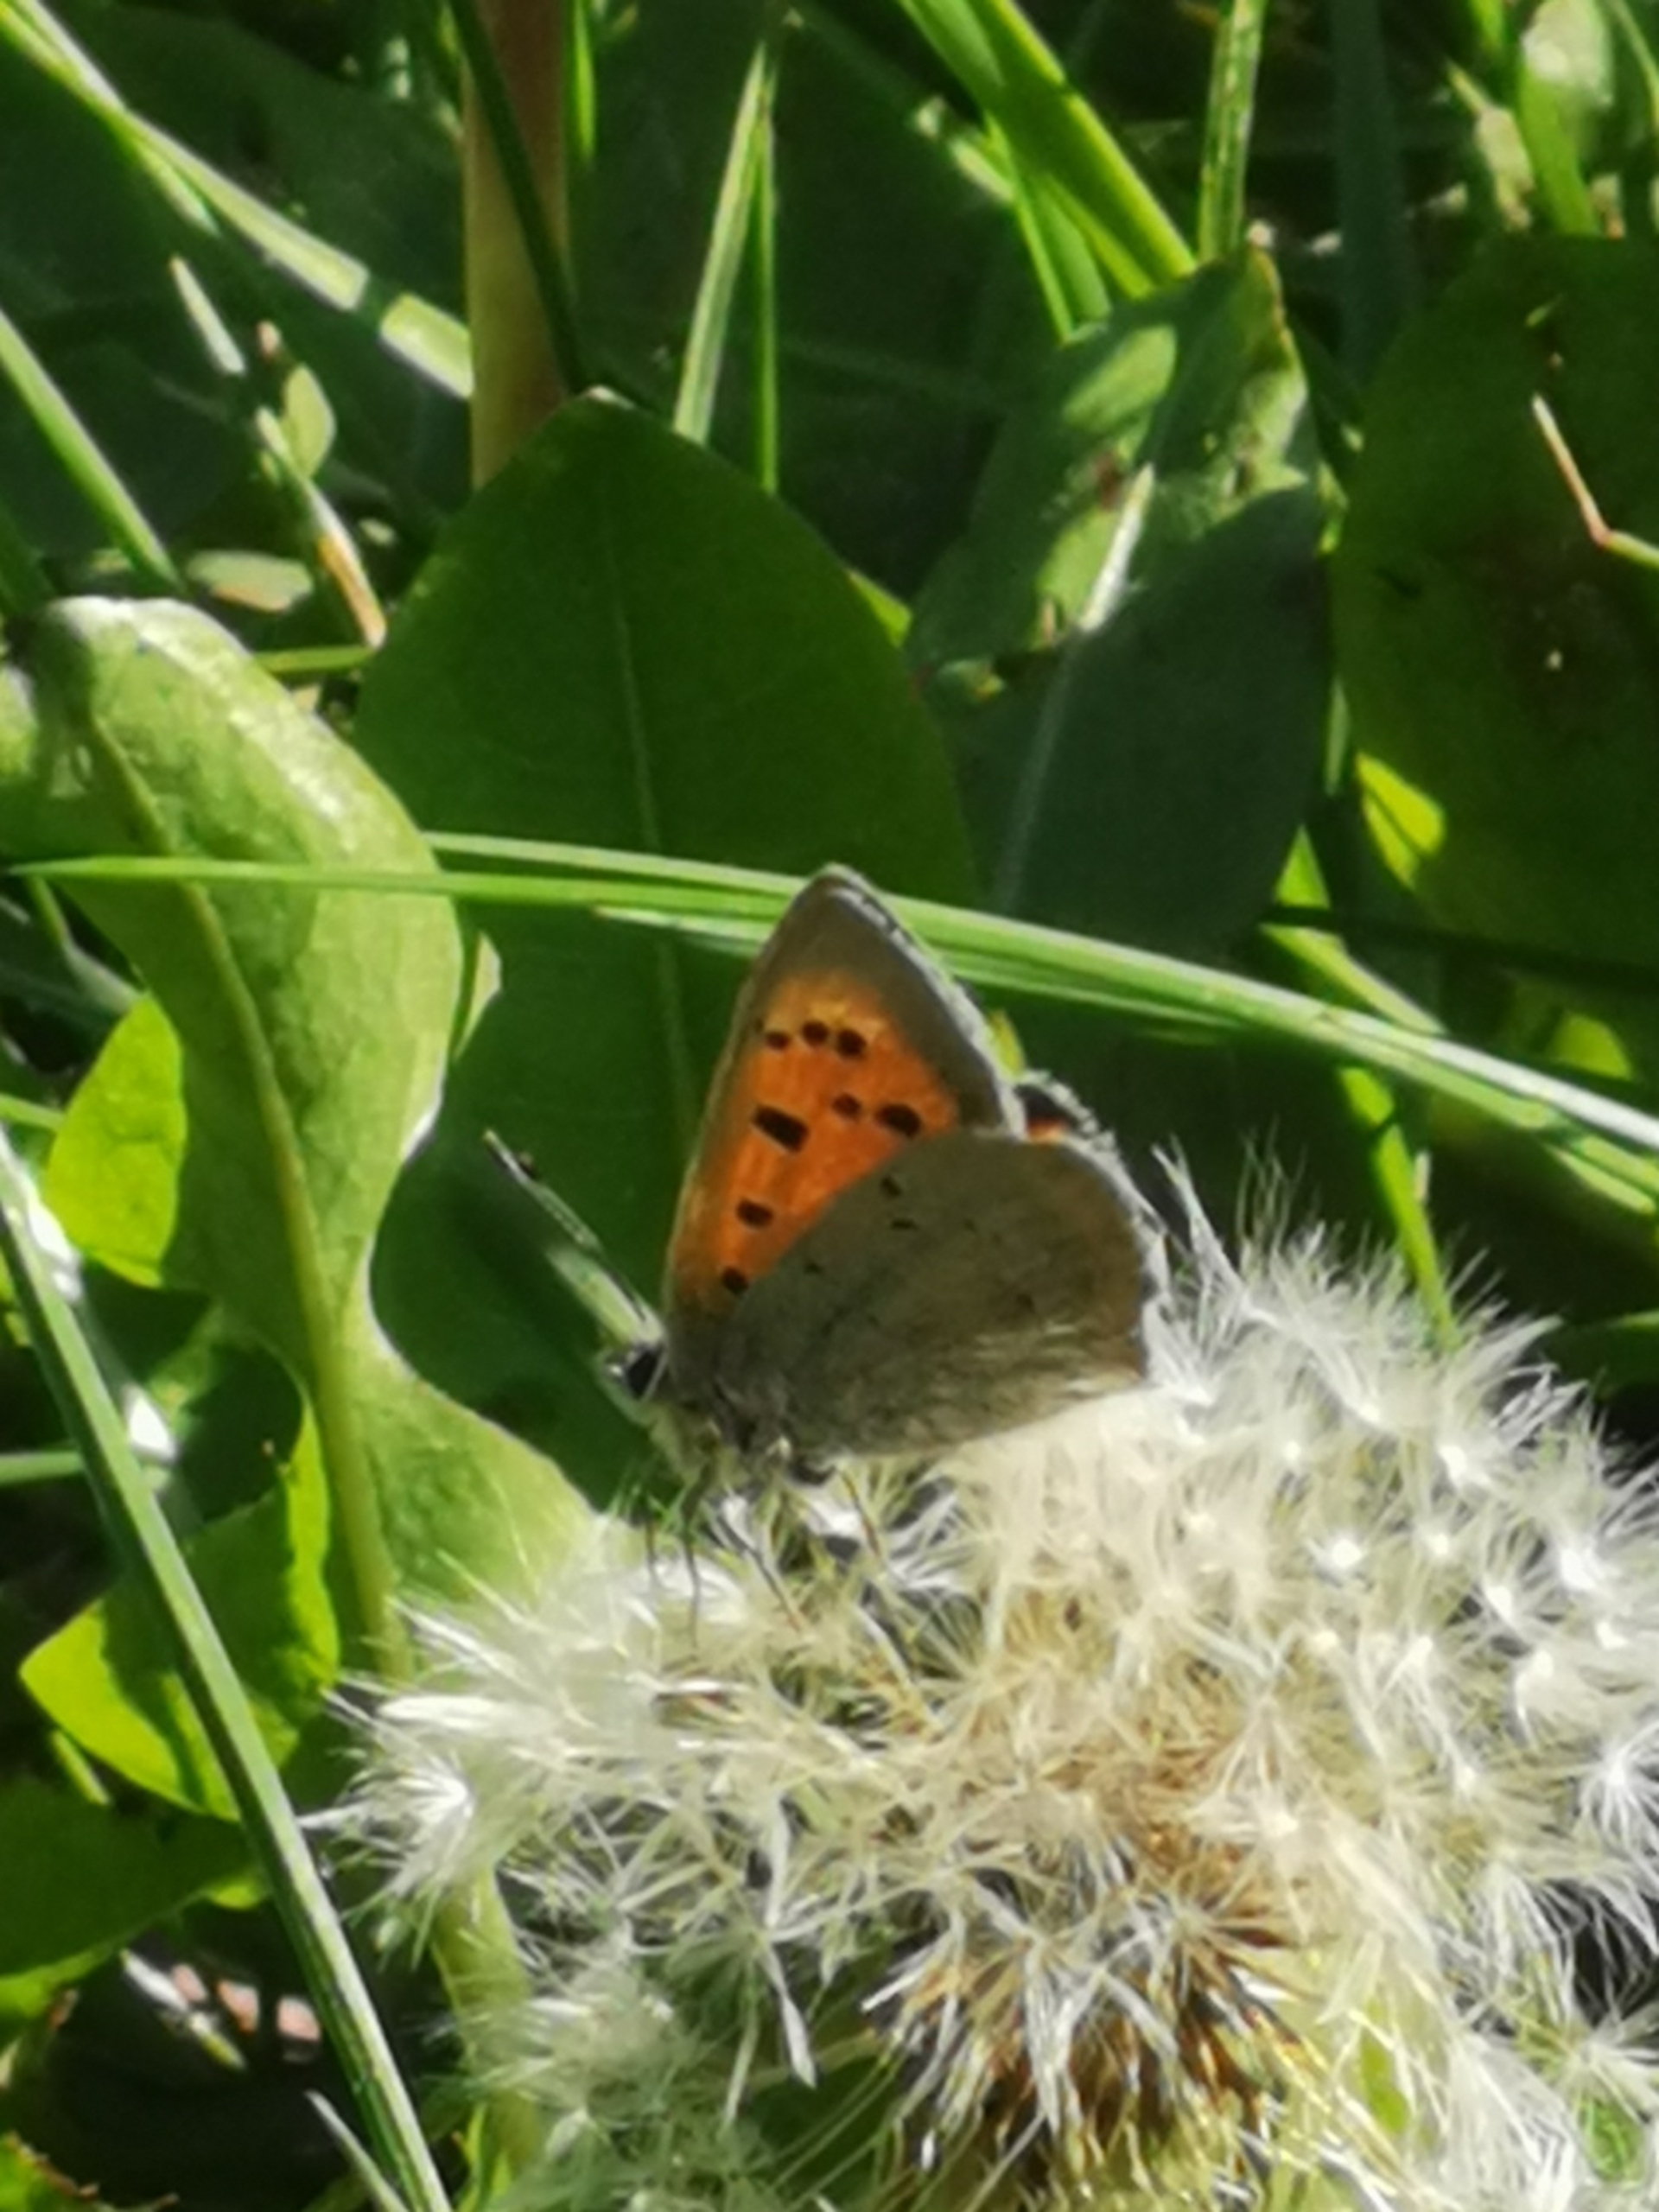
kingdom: Animalia
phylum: Arthropoda
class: Insecta
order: Lepidoptera
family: Lycaenidae
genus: Lycaena
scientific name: Lycaena phlaeas
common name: Lille ildfugl
